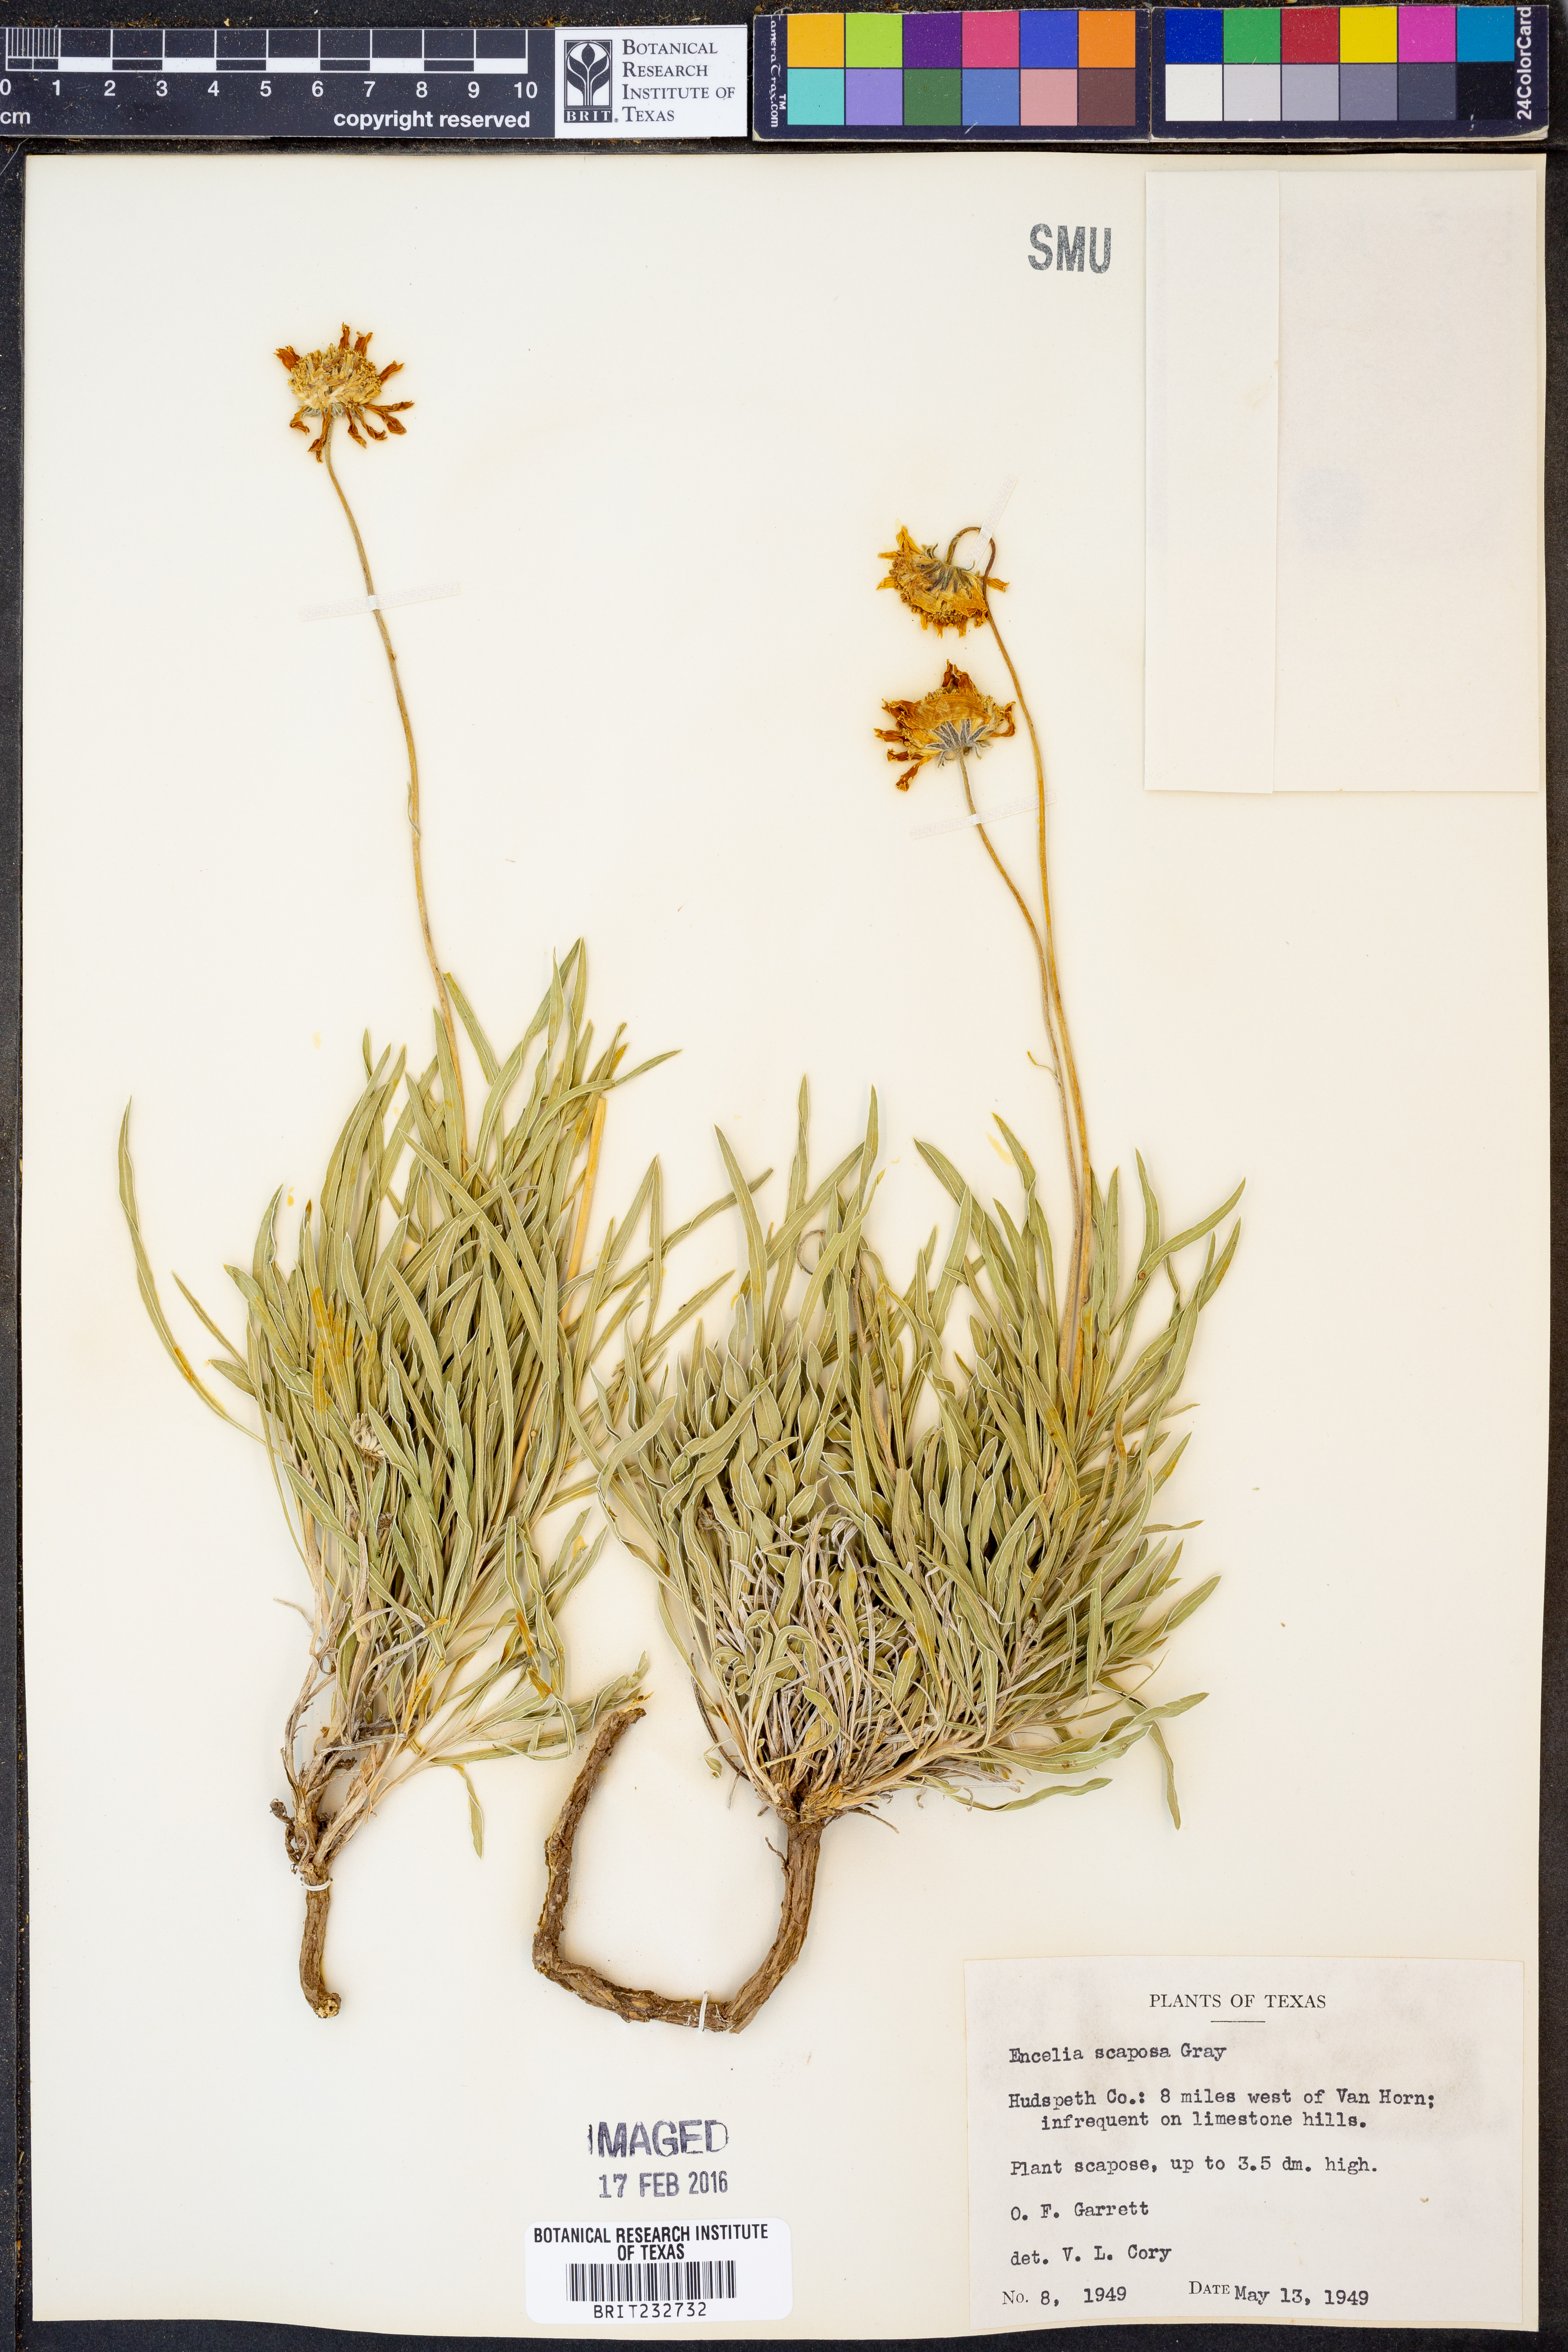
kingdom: Plantae
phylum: Tracheophyta
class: Magnoliopsida
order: Asterales
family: Asteraceae
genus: Encelia
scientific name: Encelia scaposa
